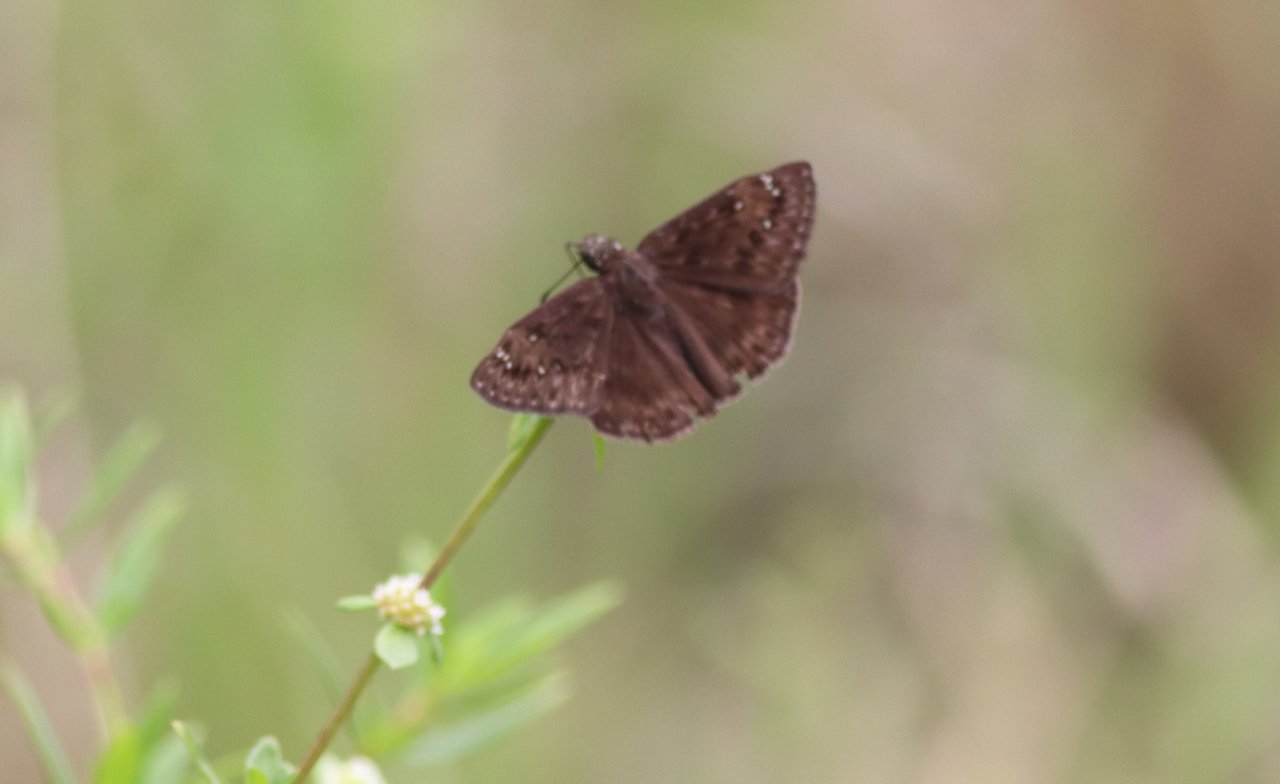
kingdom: Animalia
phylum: Arthropoda
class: Insecta
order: Lepidoptera
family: Hesperiidae
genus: Autochton
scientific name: Autochton
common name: Northern Cloudywing
